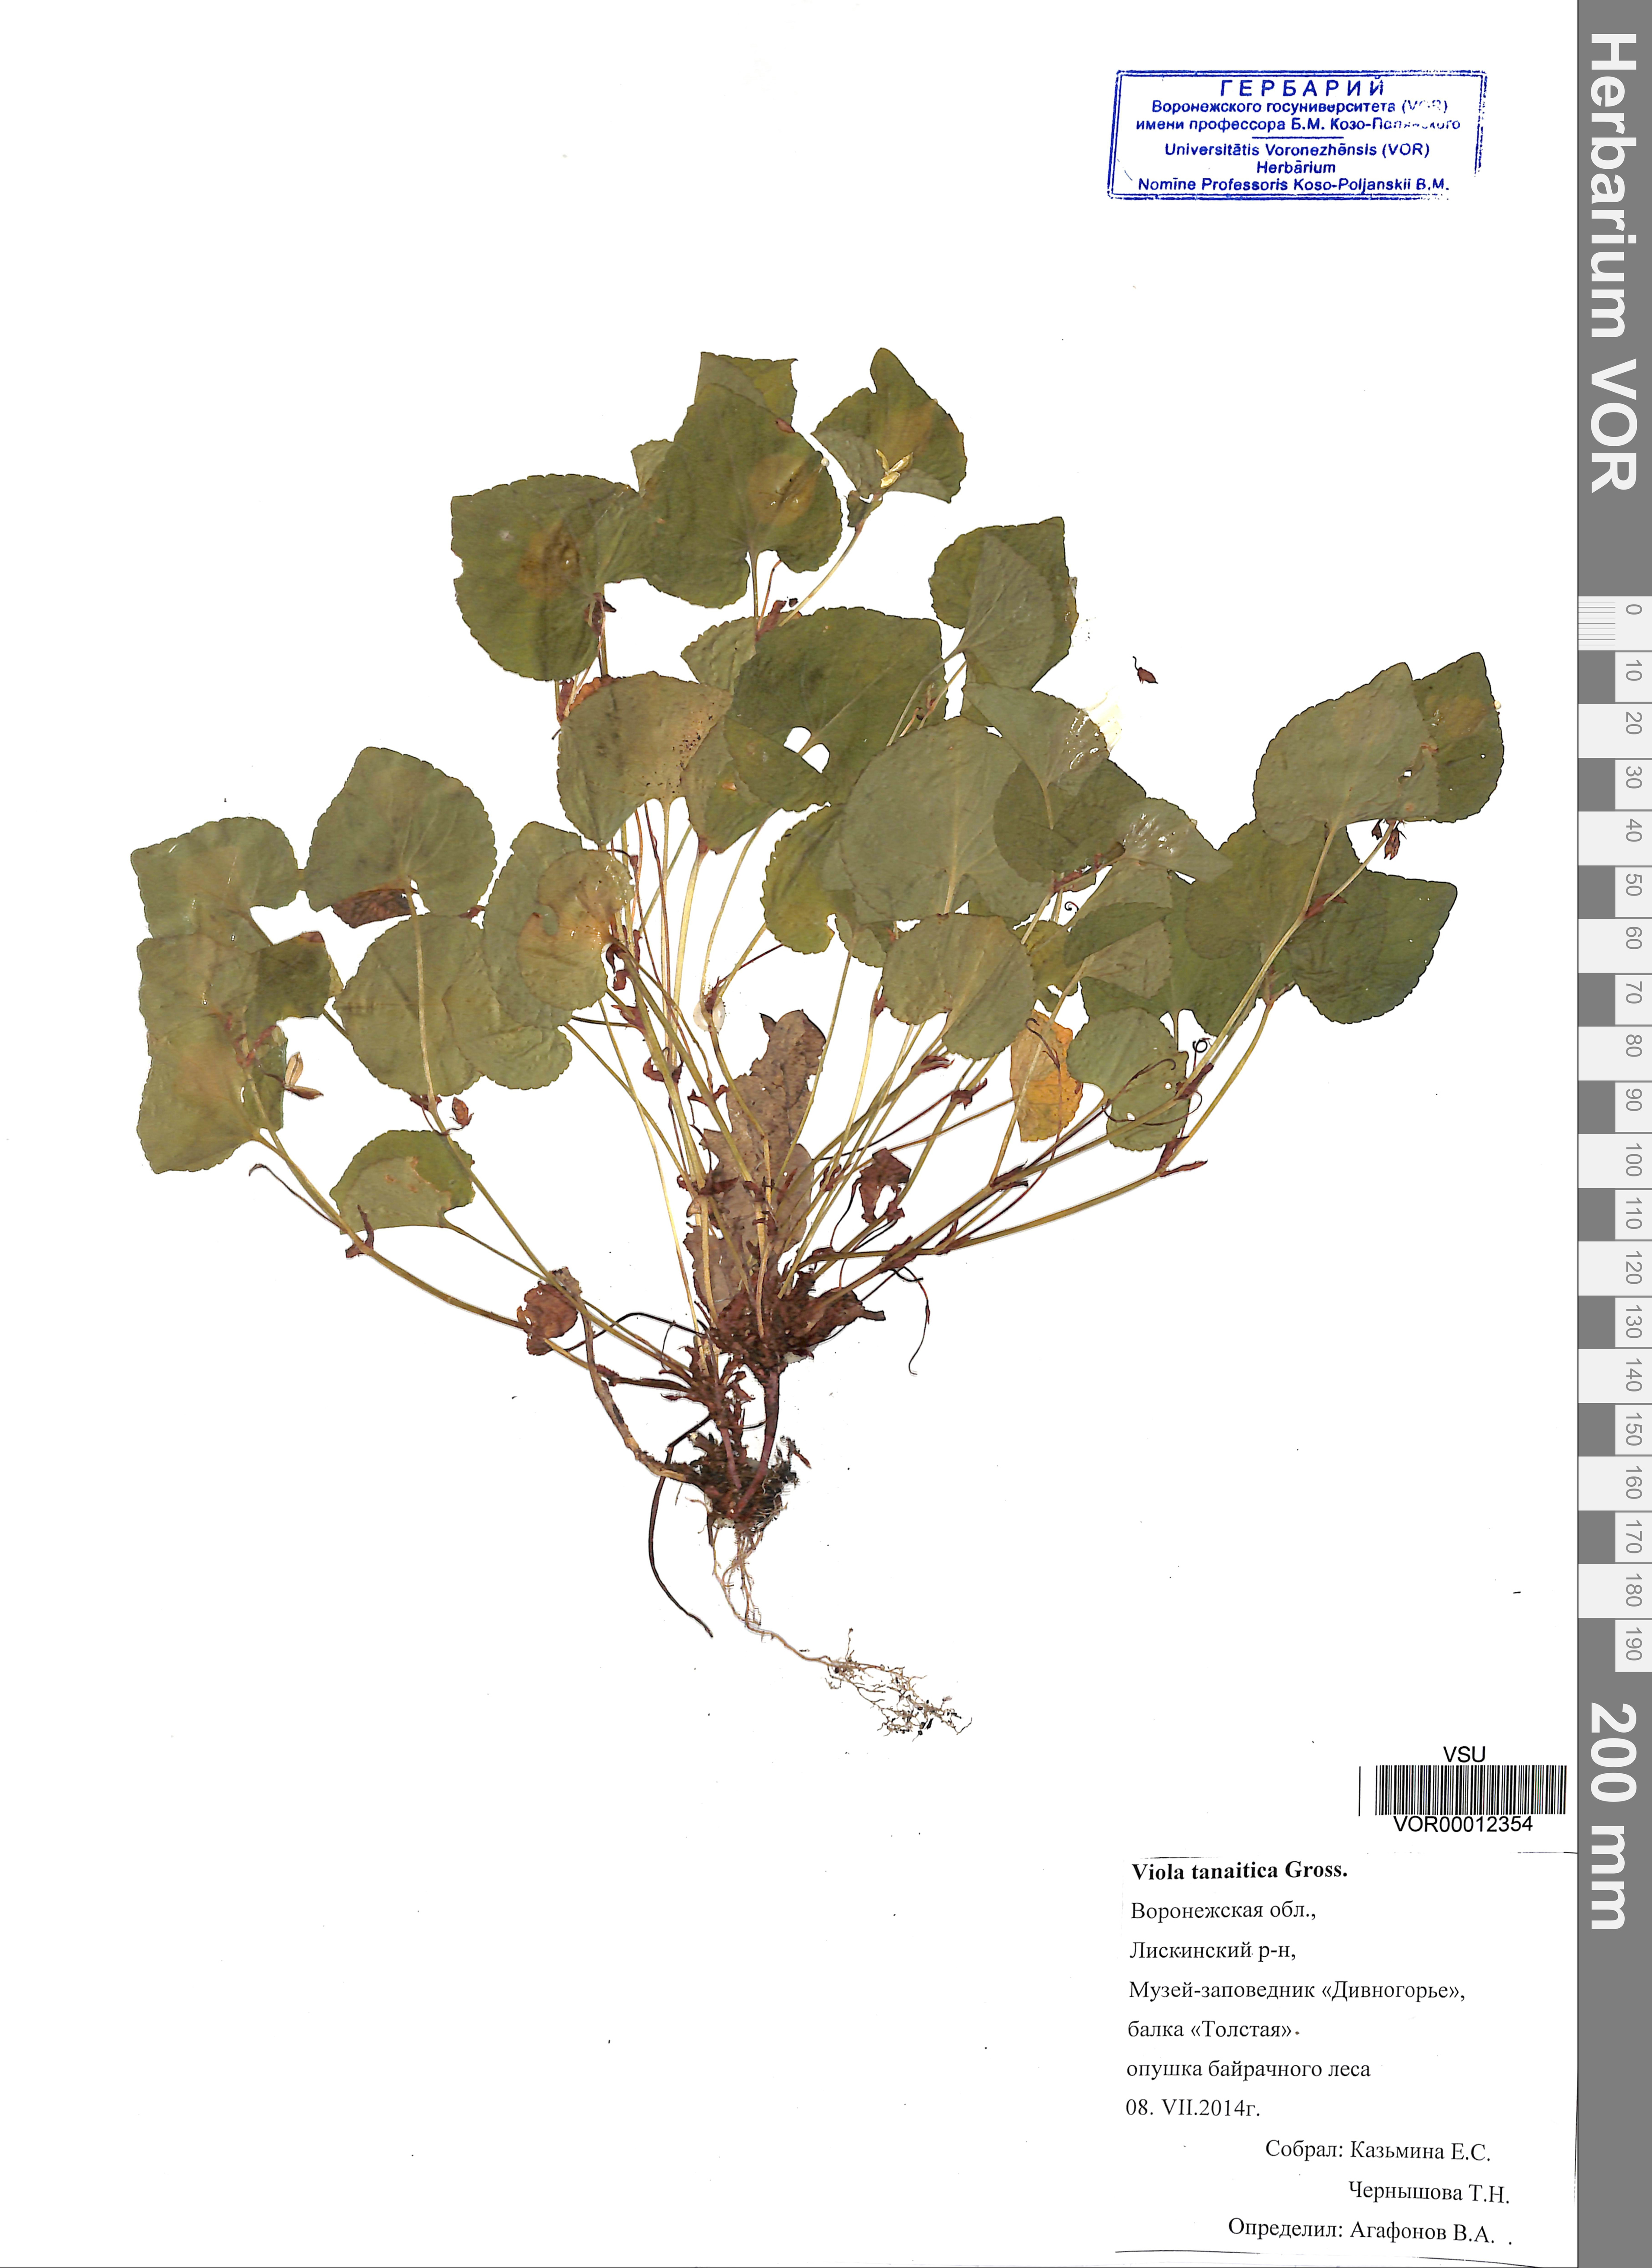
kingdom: Plantae
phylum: Tracheophyta
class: Magnoliopsida
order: Malpighiales
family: Violaceae
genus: Viola
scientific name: Viola tanaitica
